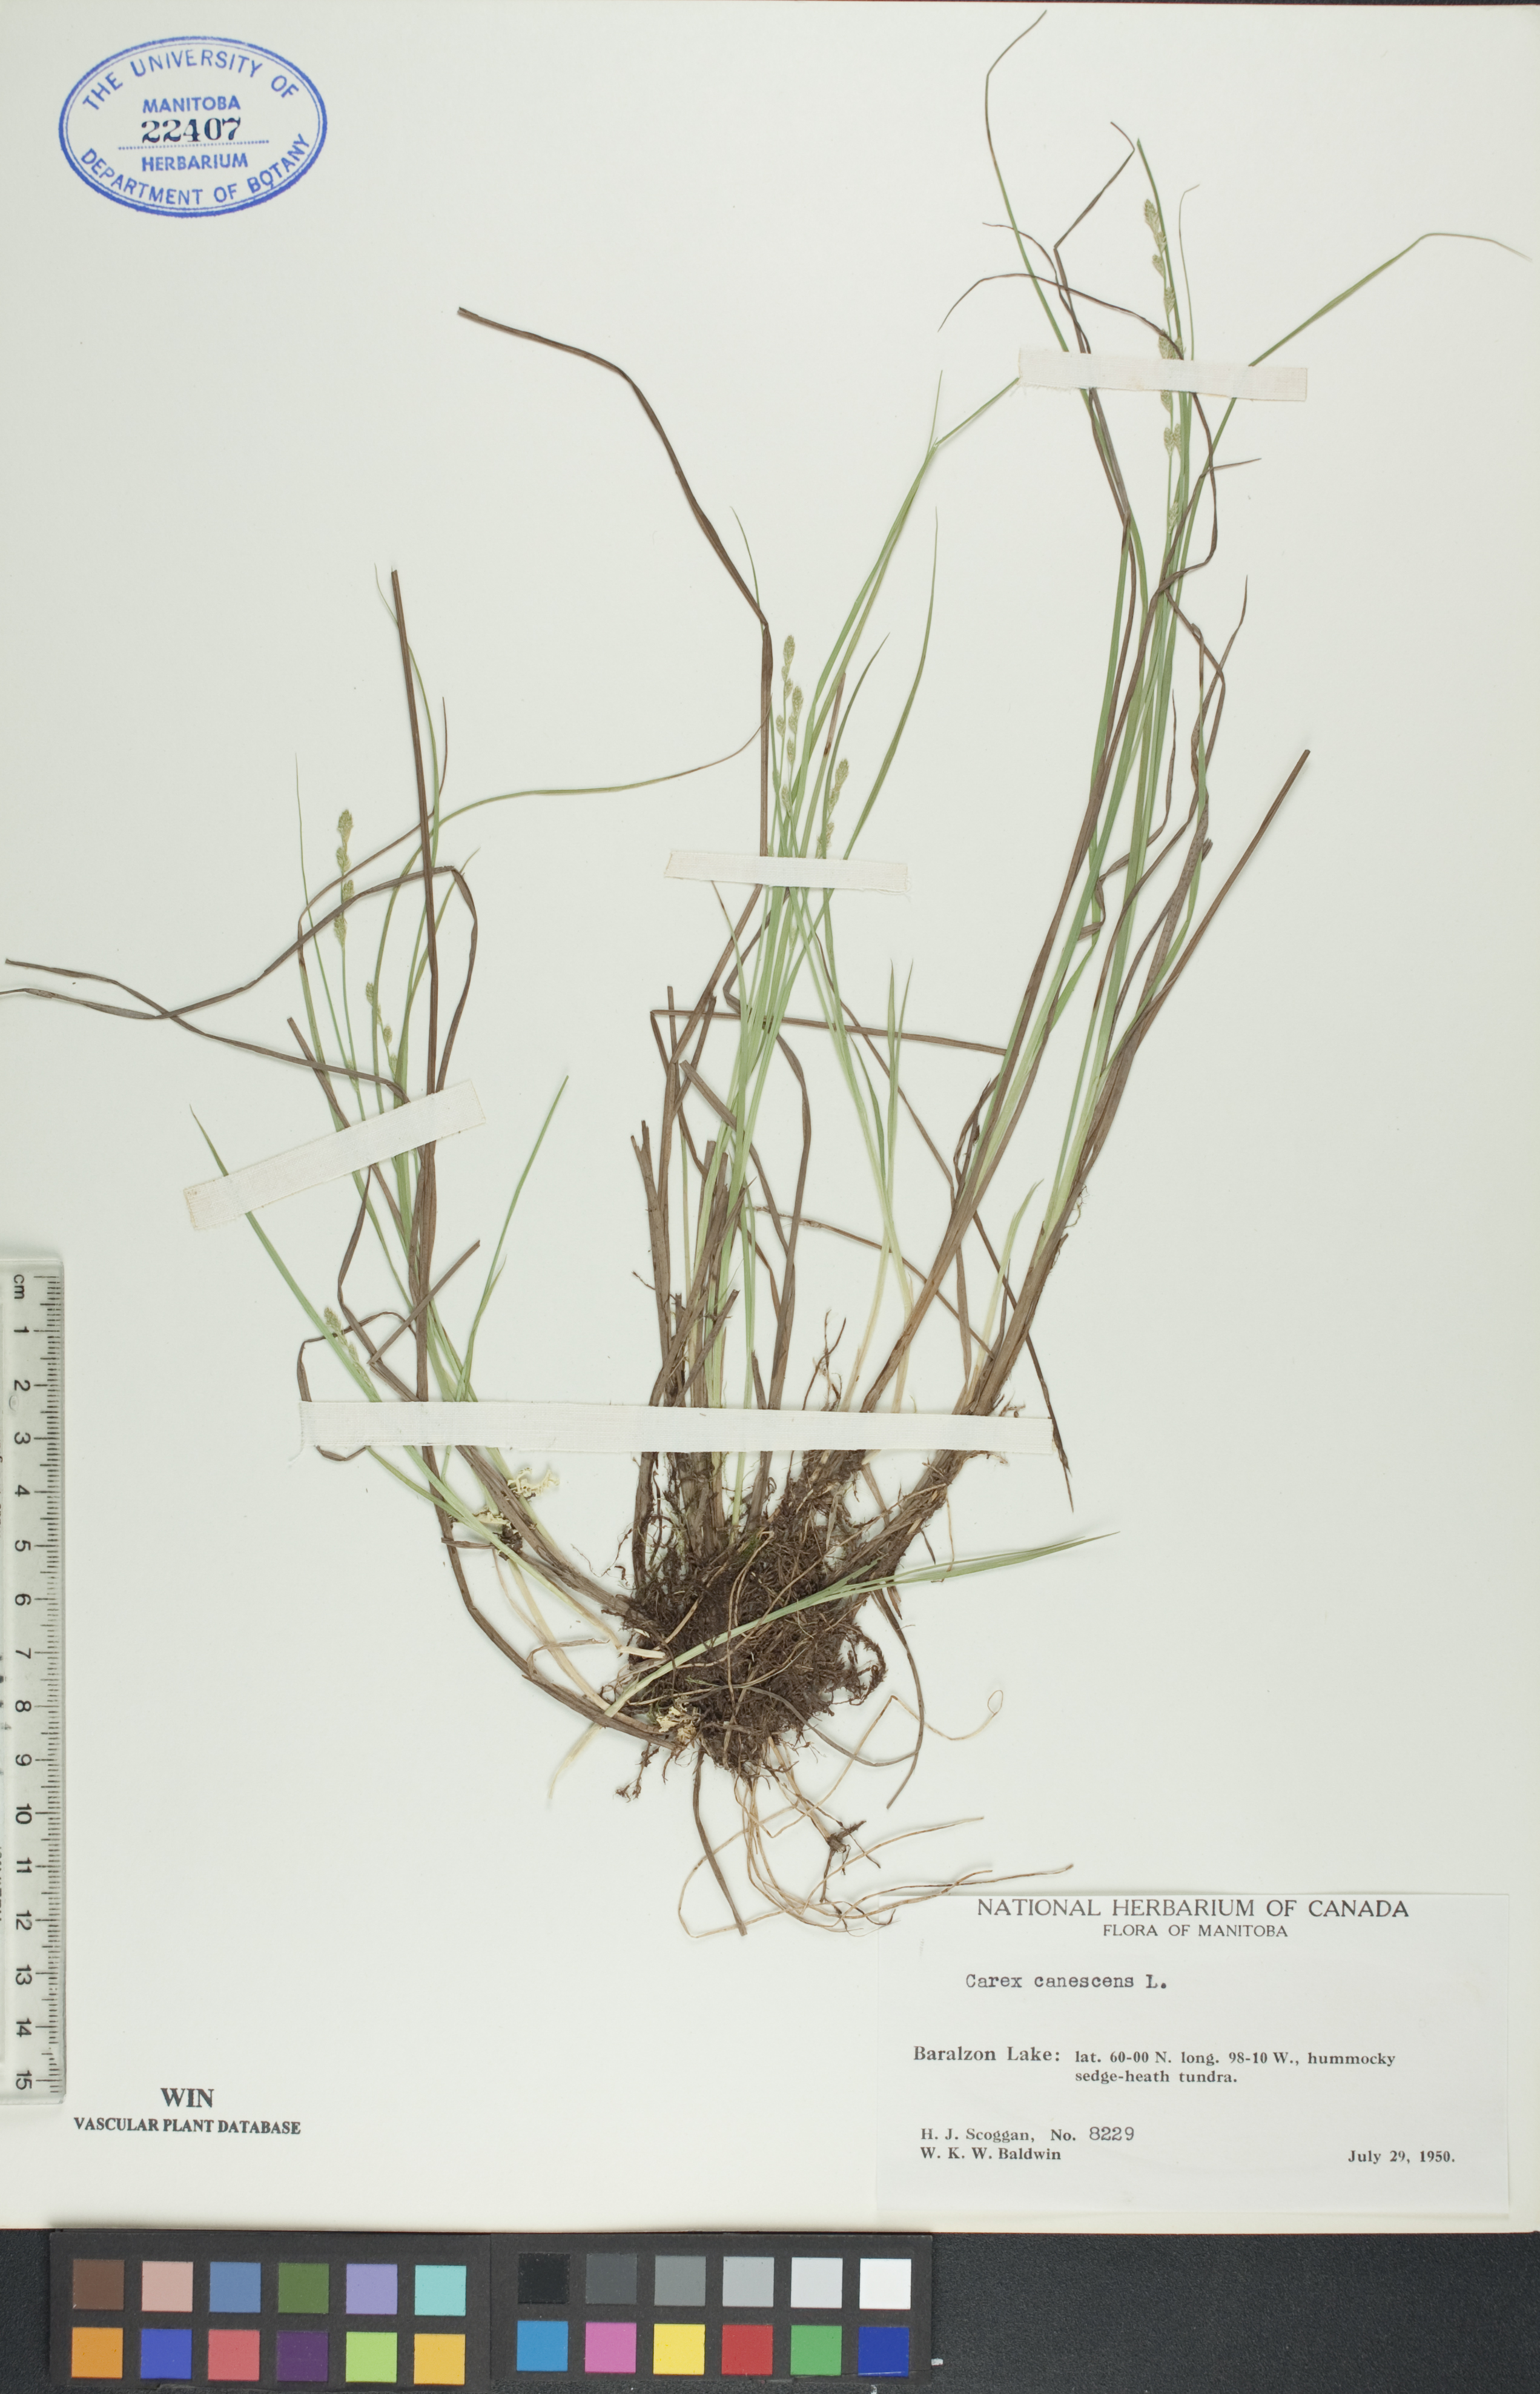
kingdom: Plantae
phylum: Tracheophyta
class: Liliopsida
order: Poales
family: Cyperaceae
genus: Carex
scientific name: Carex canescens
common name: White sedge
